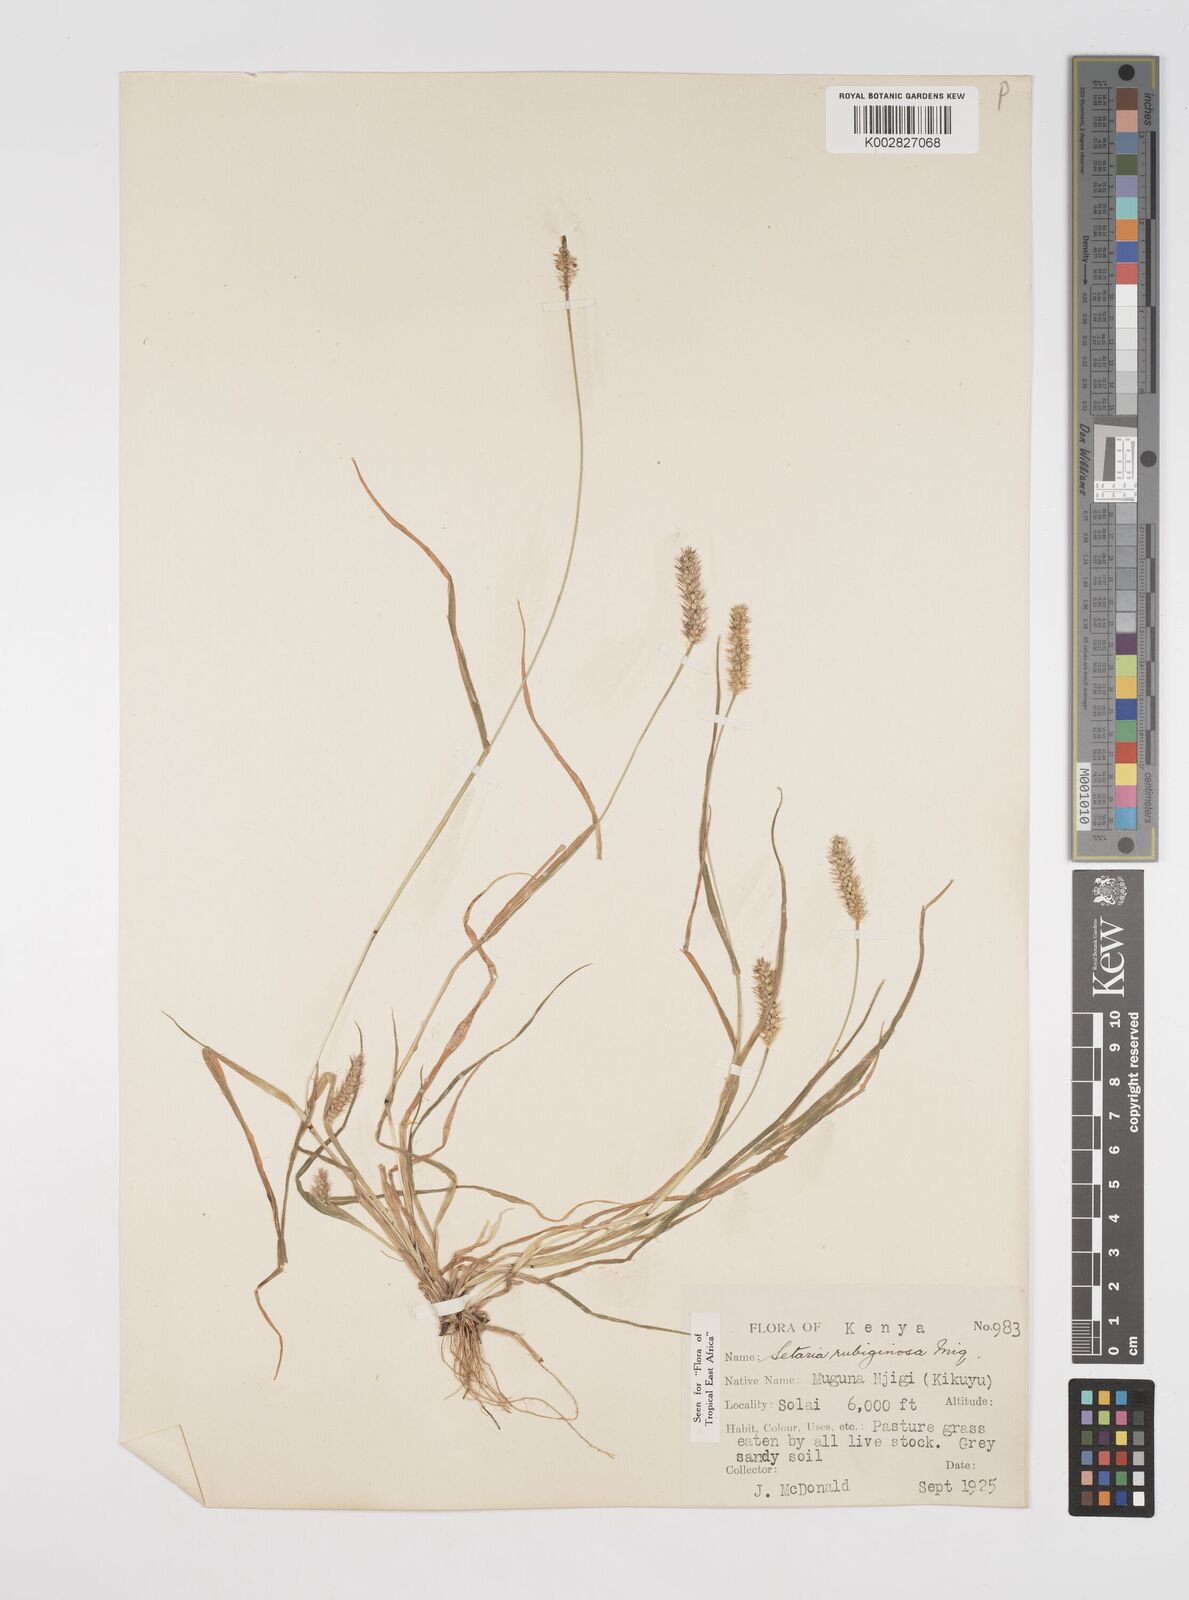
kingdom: Plantae
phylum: Tracheophyta
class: Liliopsida
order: Poales
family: Poaceae
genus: Setaria
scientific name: Setaria pumila
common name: Yellow bristle-grass
